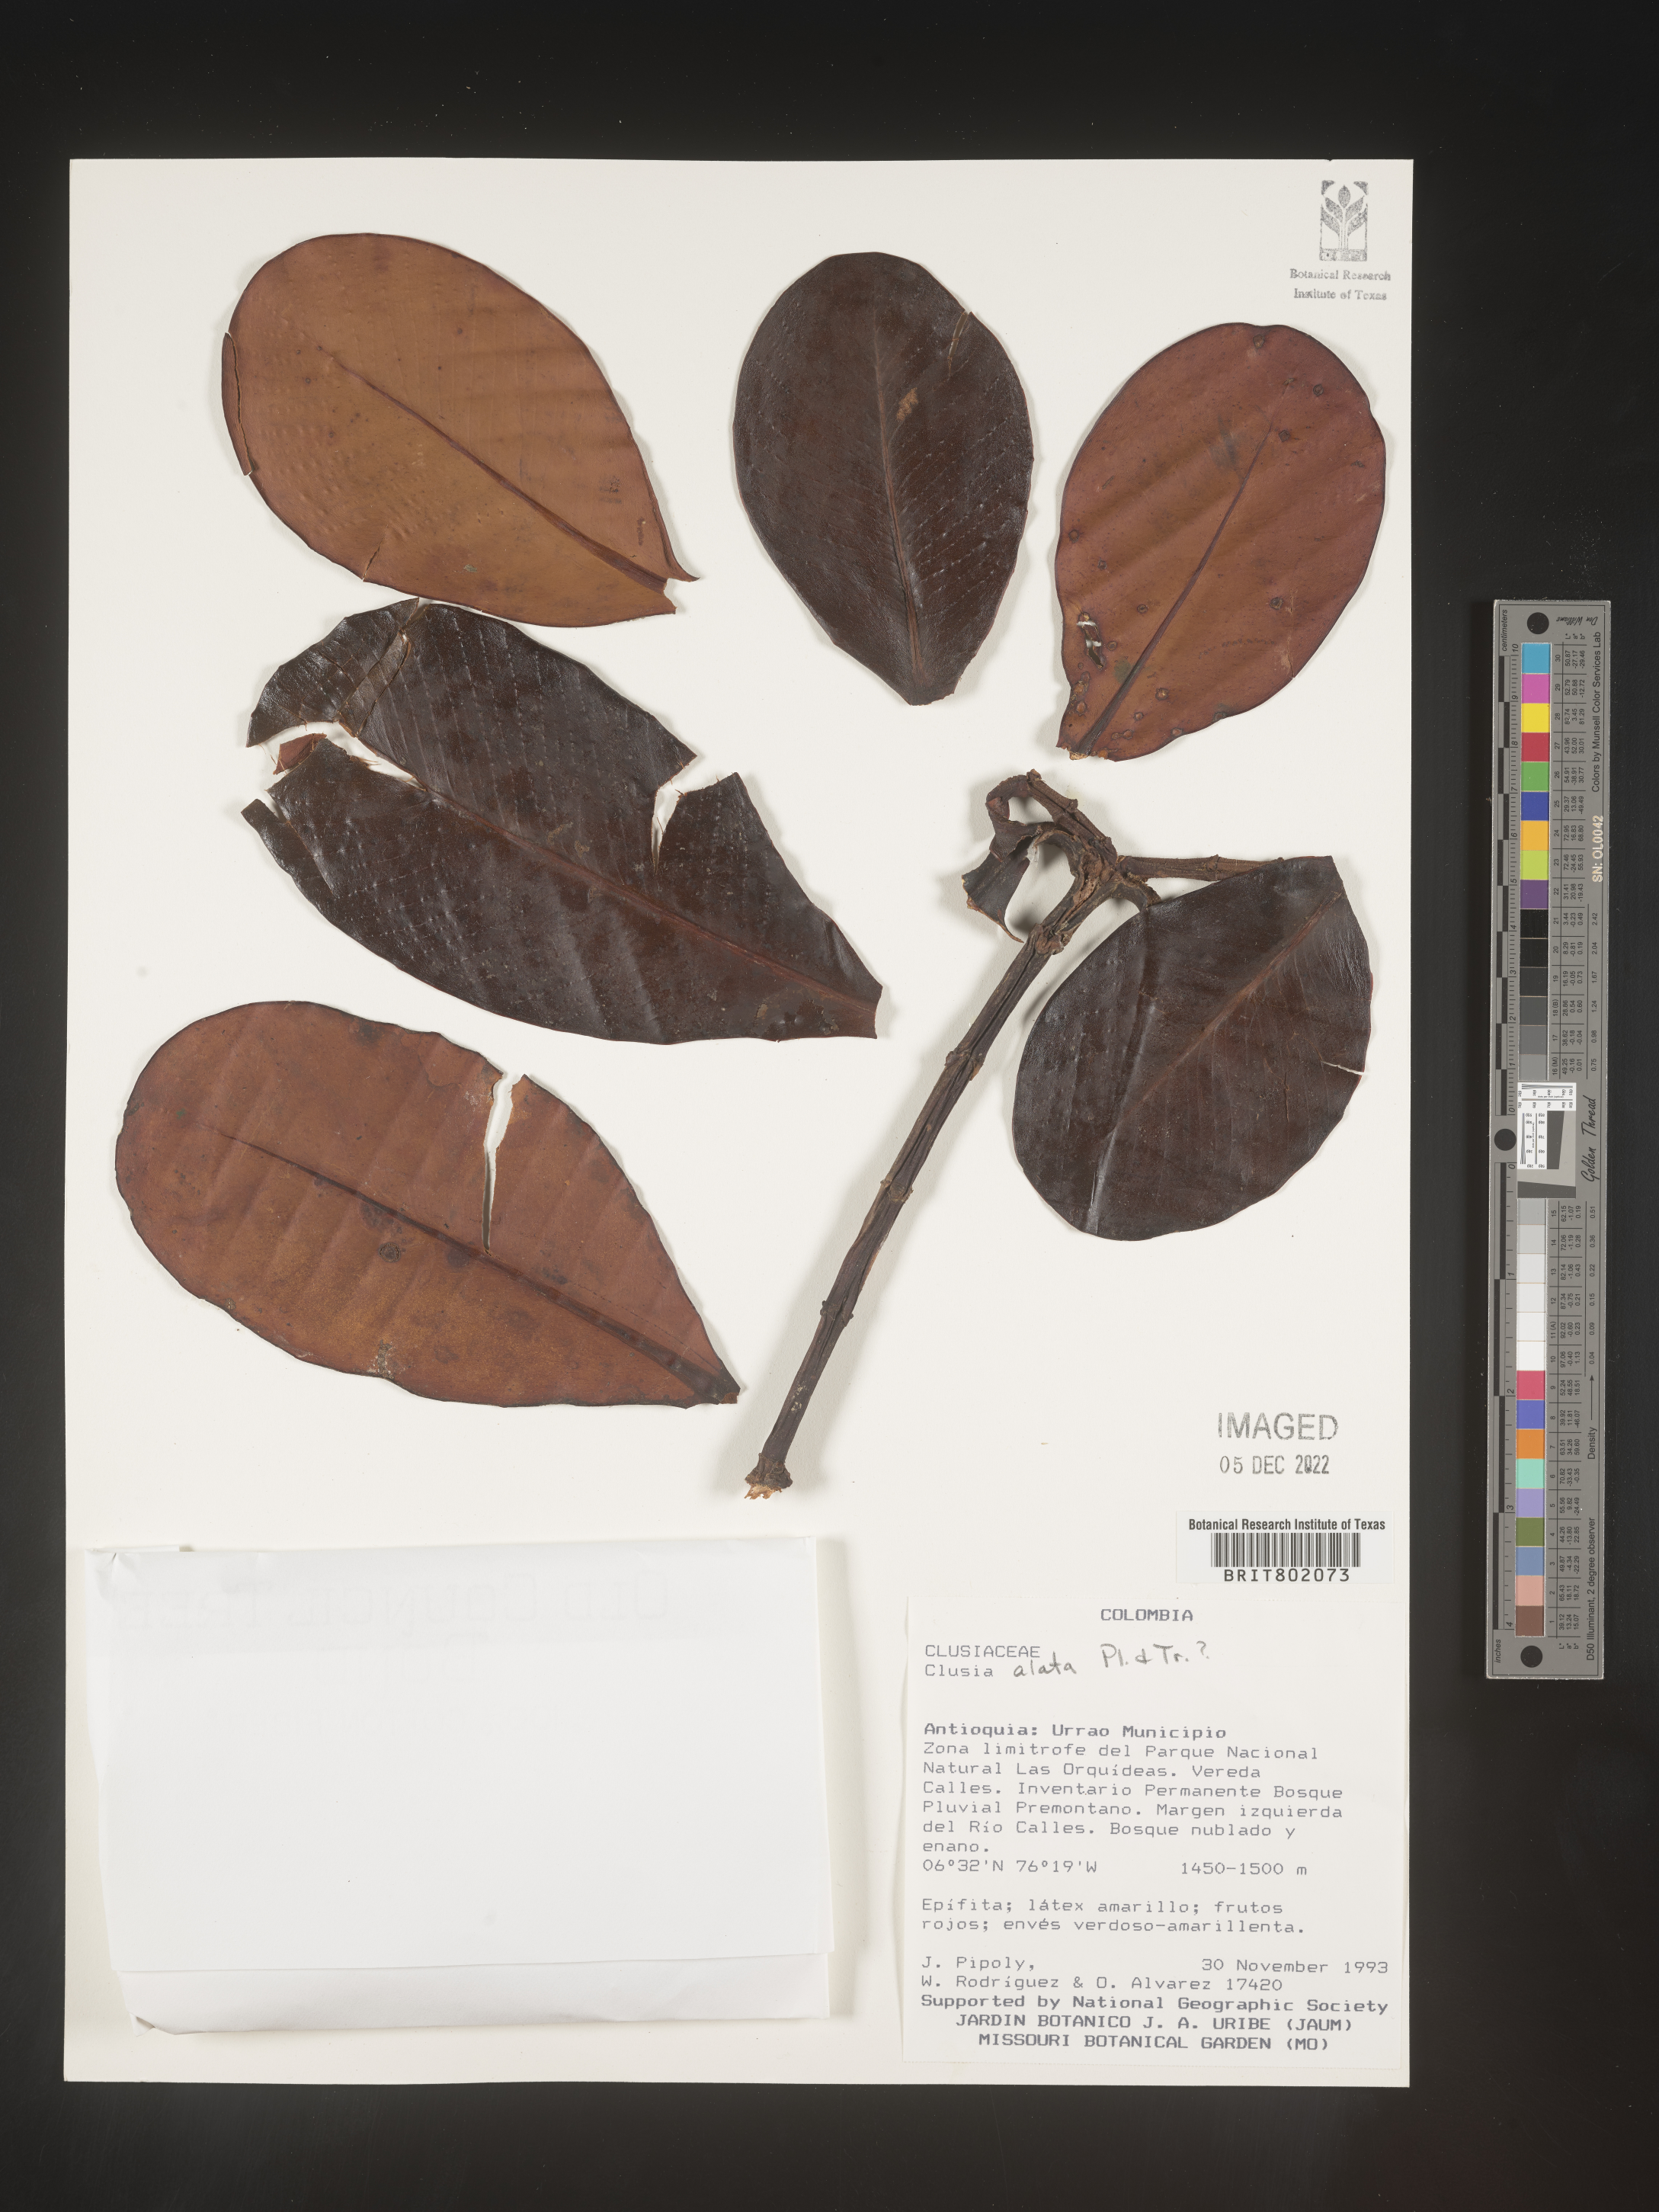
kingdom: Plantae
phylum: Tracheophyta
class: Magnoliopsida
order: Malpighiales
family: Clusiaceae
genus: Clusia
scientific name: Clusia alata
